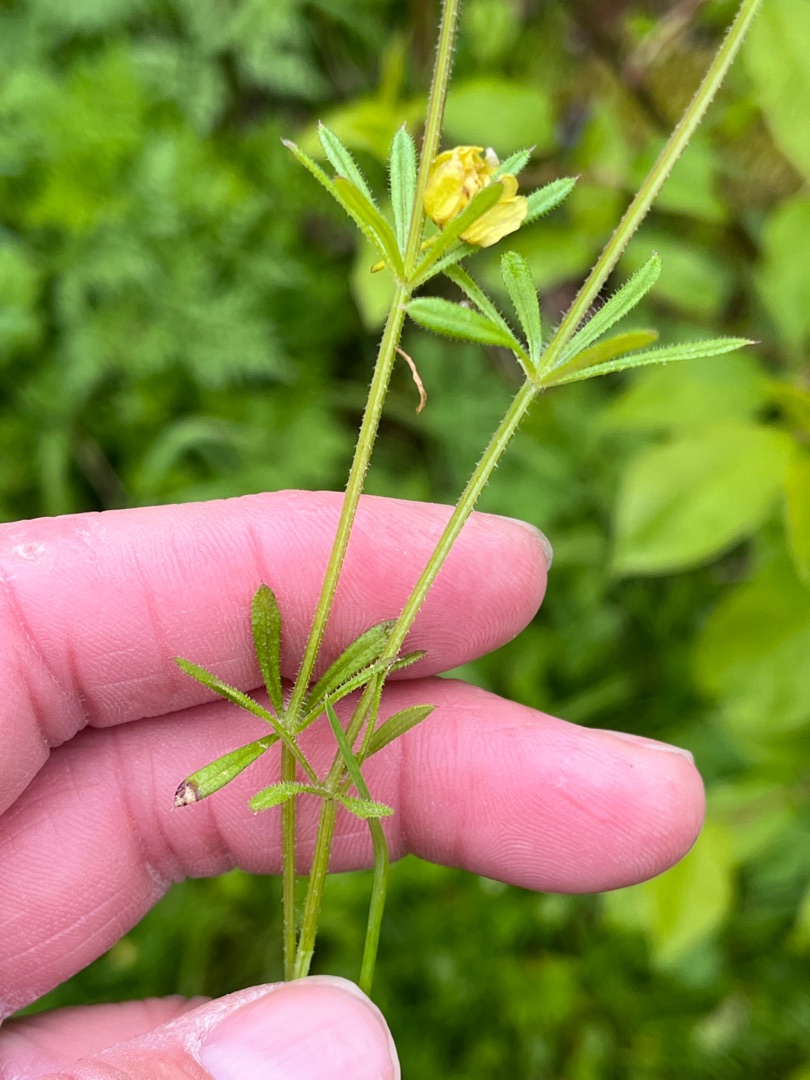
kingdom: Plantae
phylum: Tracheophyta
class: Magnoliopsida
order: Gentianales
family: Rubiaceae
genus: Galium
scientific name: Galium aparine
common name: Burre-snerre
